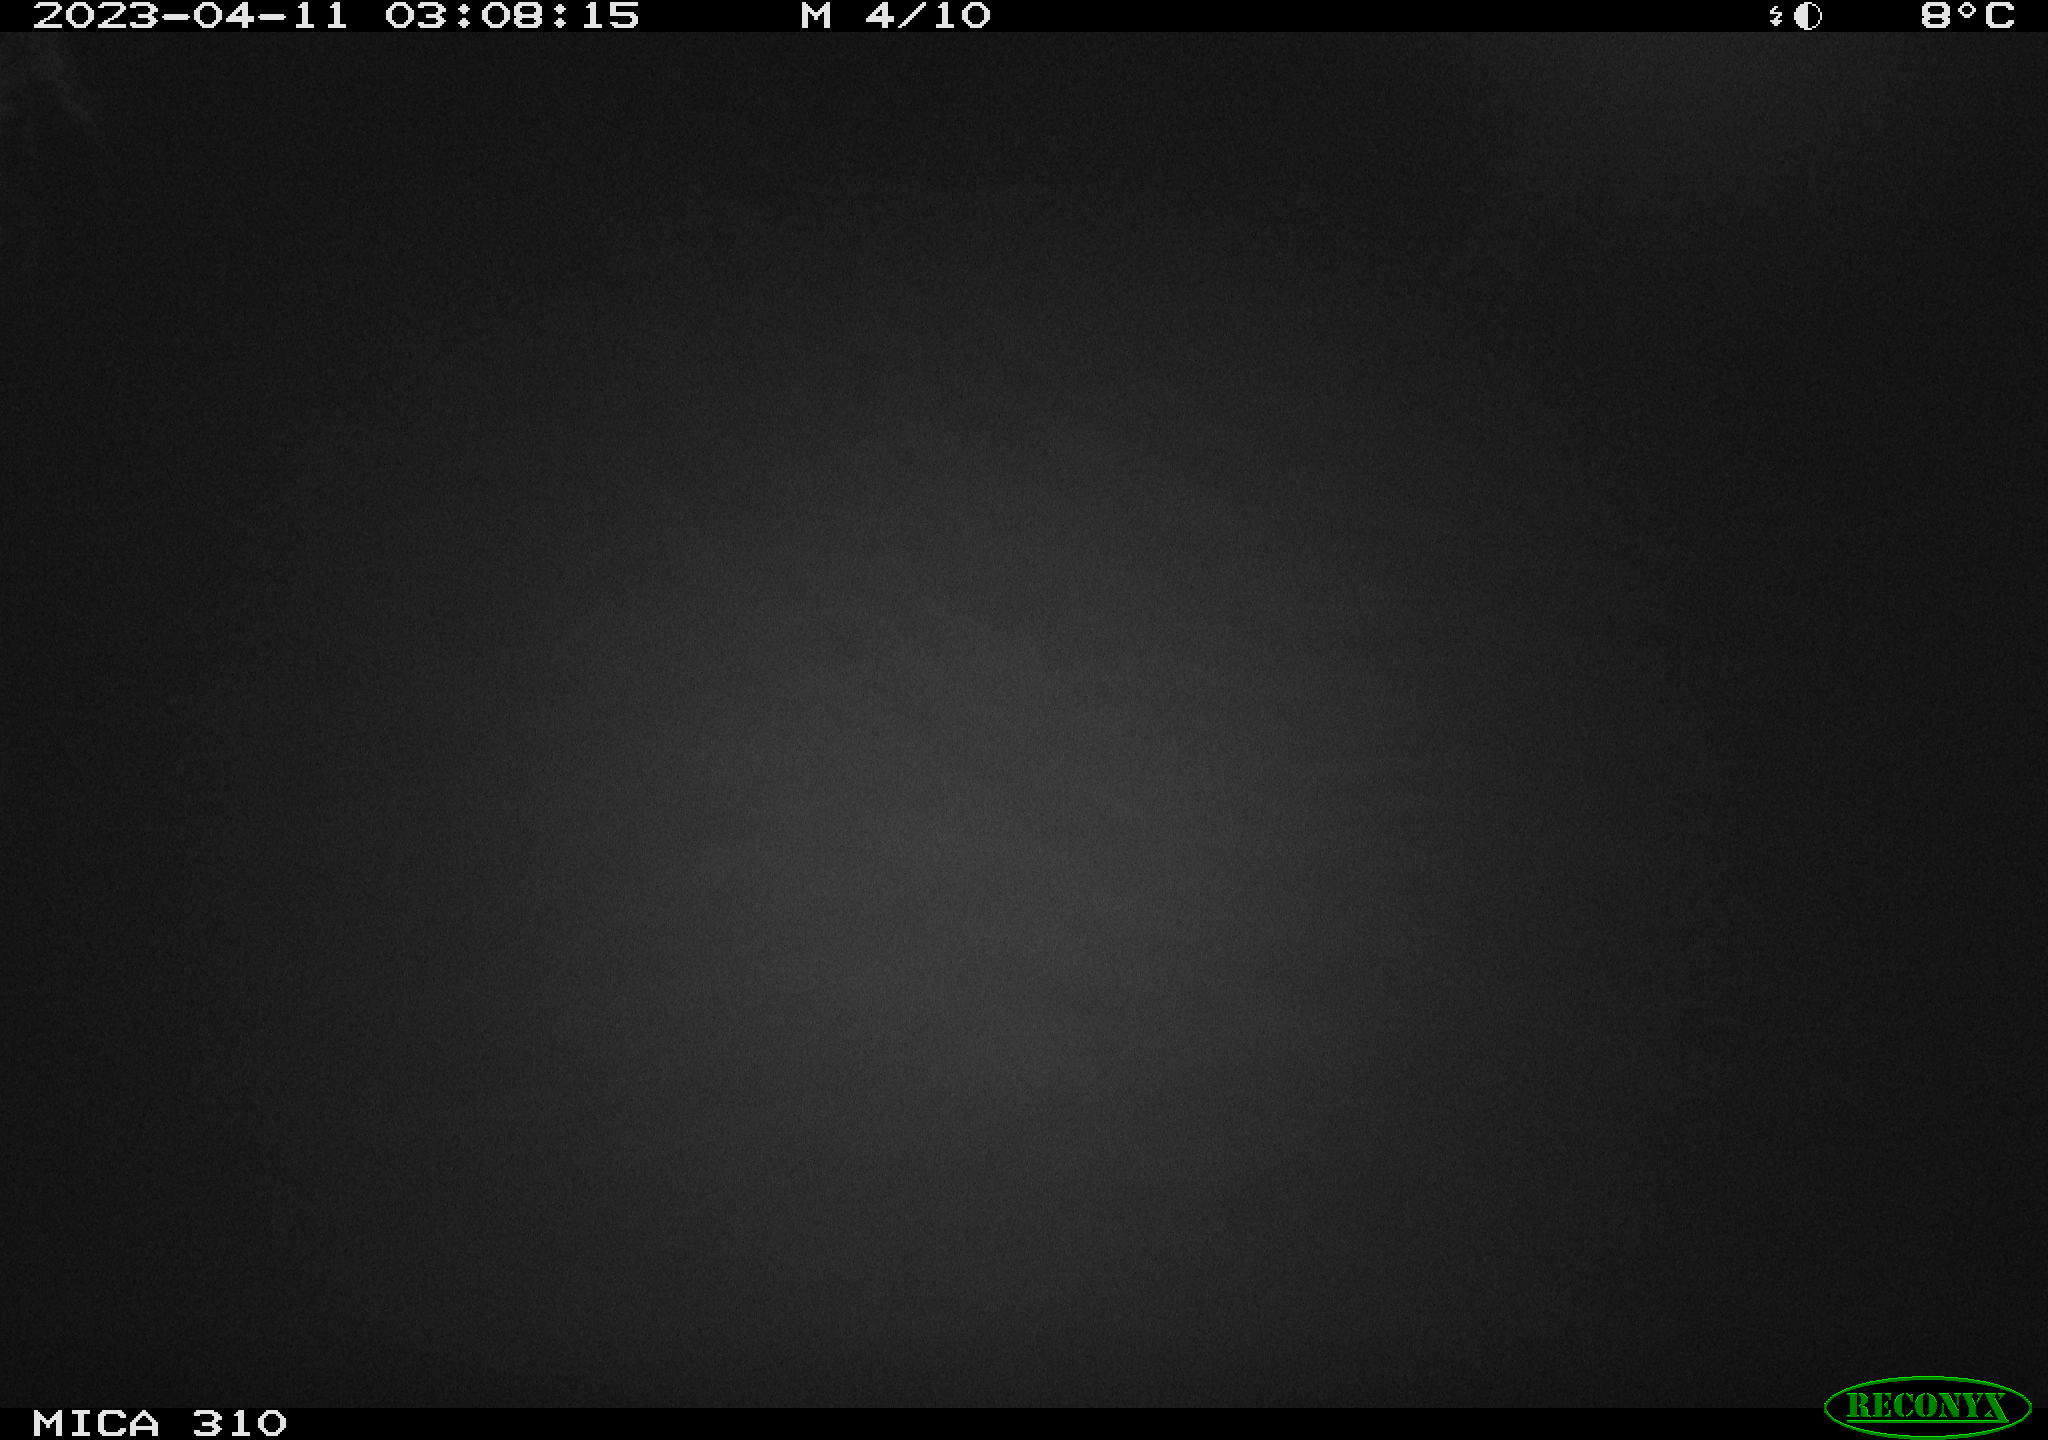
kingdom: Animalia
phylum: Chordata
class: Aves
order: Anseriformes
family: Anatidae
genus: Anas
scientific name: Anas
